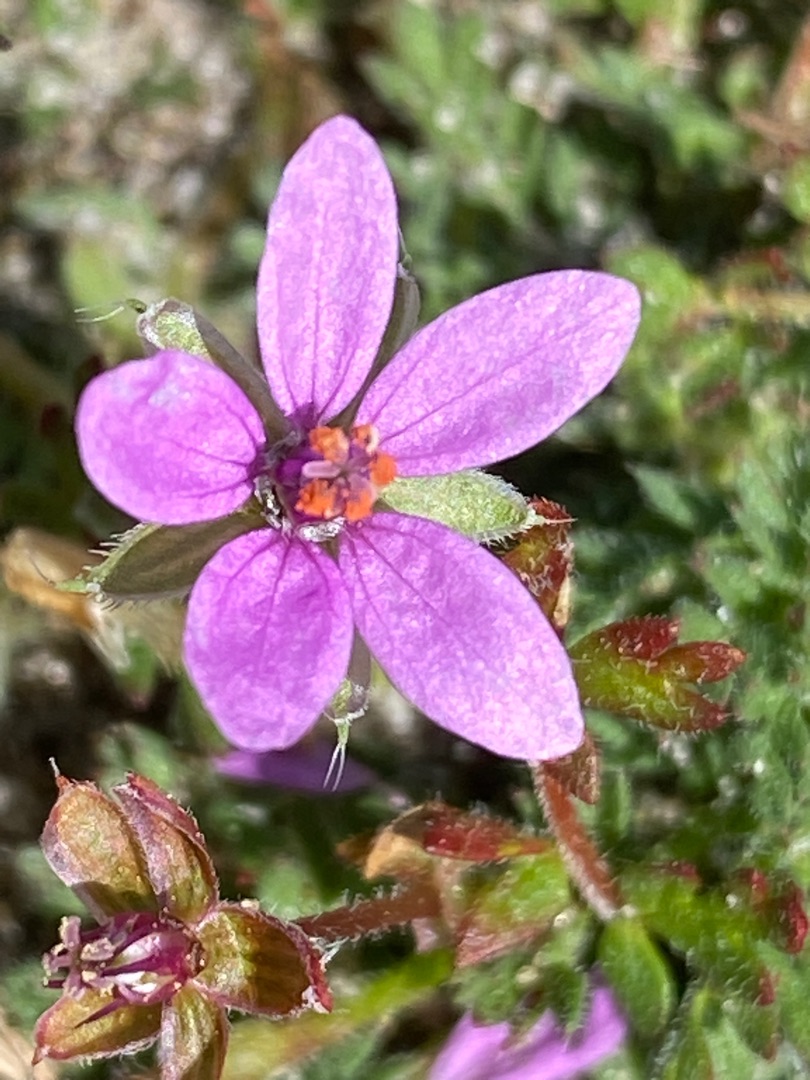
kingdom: Plantae
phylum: Tracheophyta
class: Magnoliopsida
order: Geraniales
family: Geraniaceae
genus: Erodium
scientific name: Erodium cicutarium
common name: Hejrenæb
